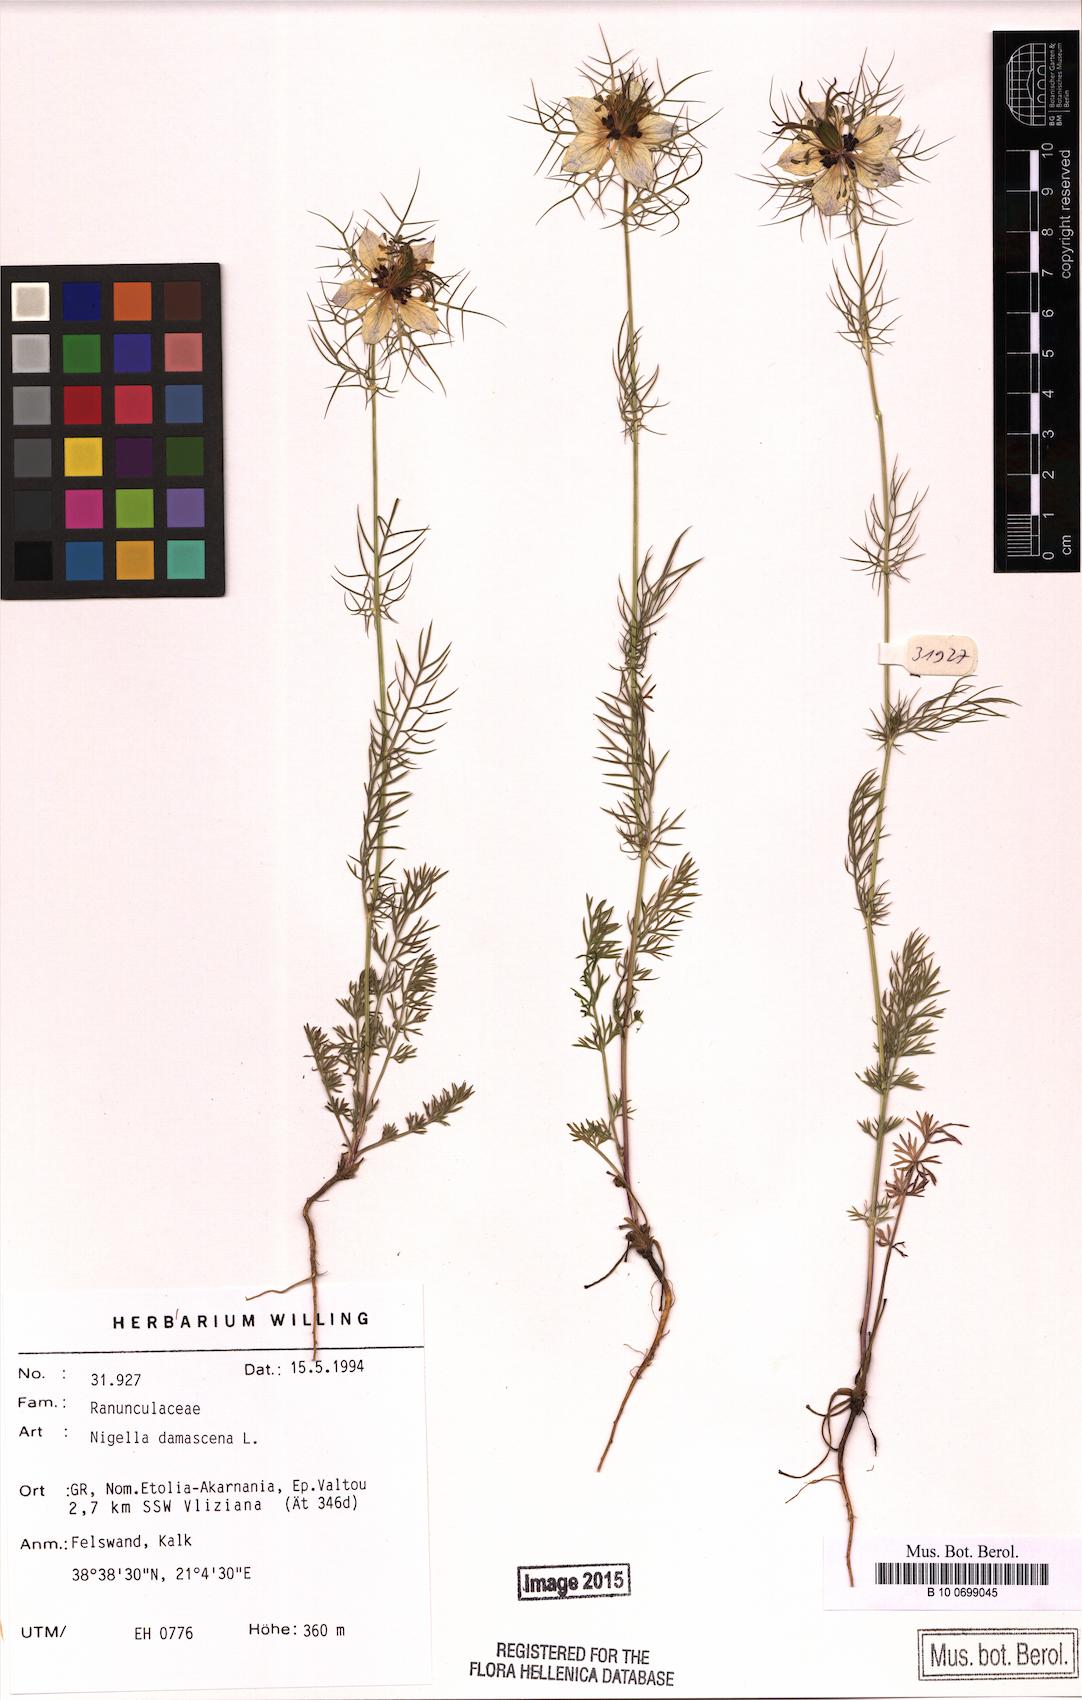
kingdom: Plantae
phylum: Tracheophyta
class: Magnoliopsida
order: Ranunculales
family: Ranunculaceae
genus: Nigella
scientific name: Nigella damascena
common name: Love-in-a-mist
